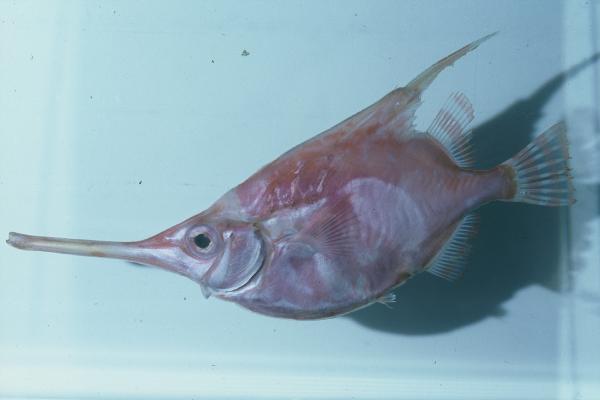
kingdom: Animalia
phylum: Chordata
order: Syngnathiformes
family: Centriscidae
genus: Notopogon
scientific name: Notopogon macrosolen
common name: Longsnout bellowfish
